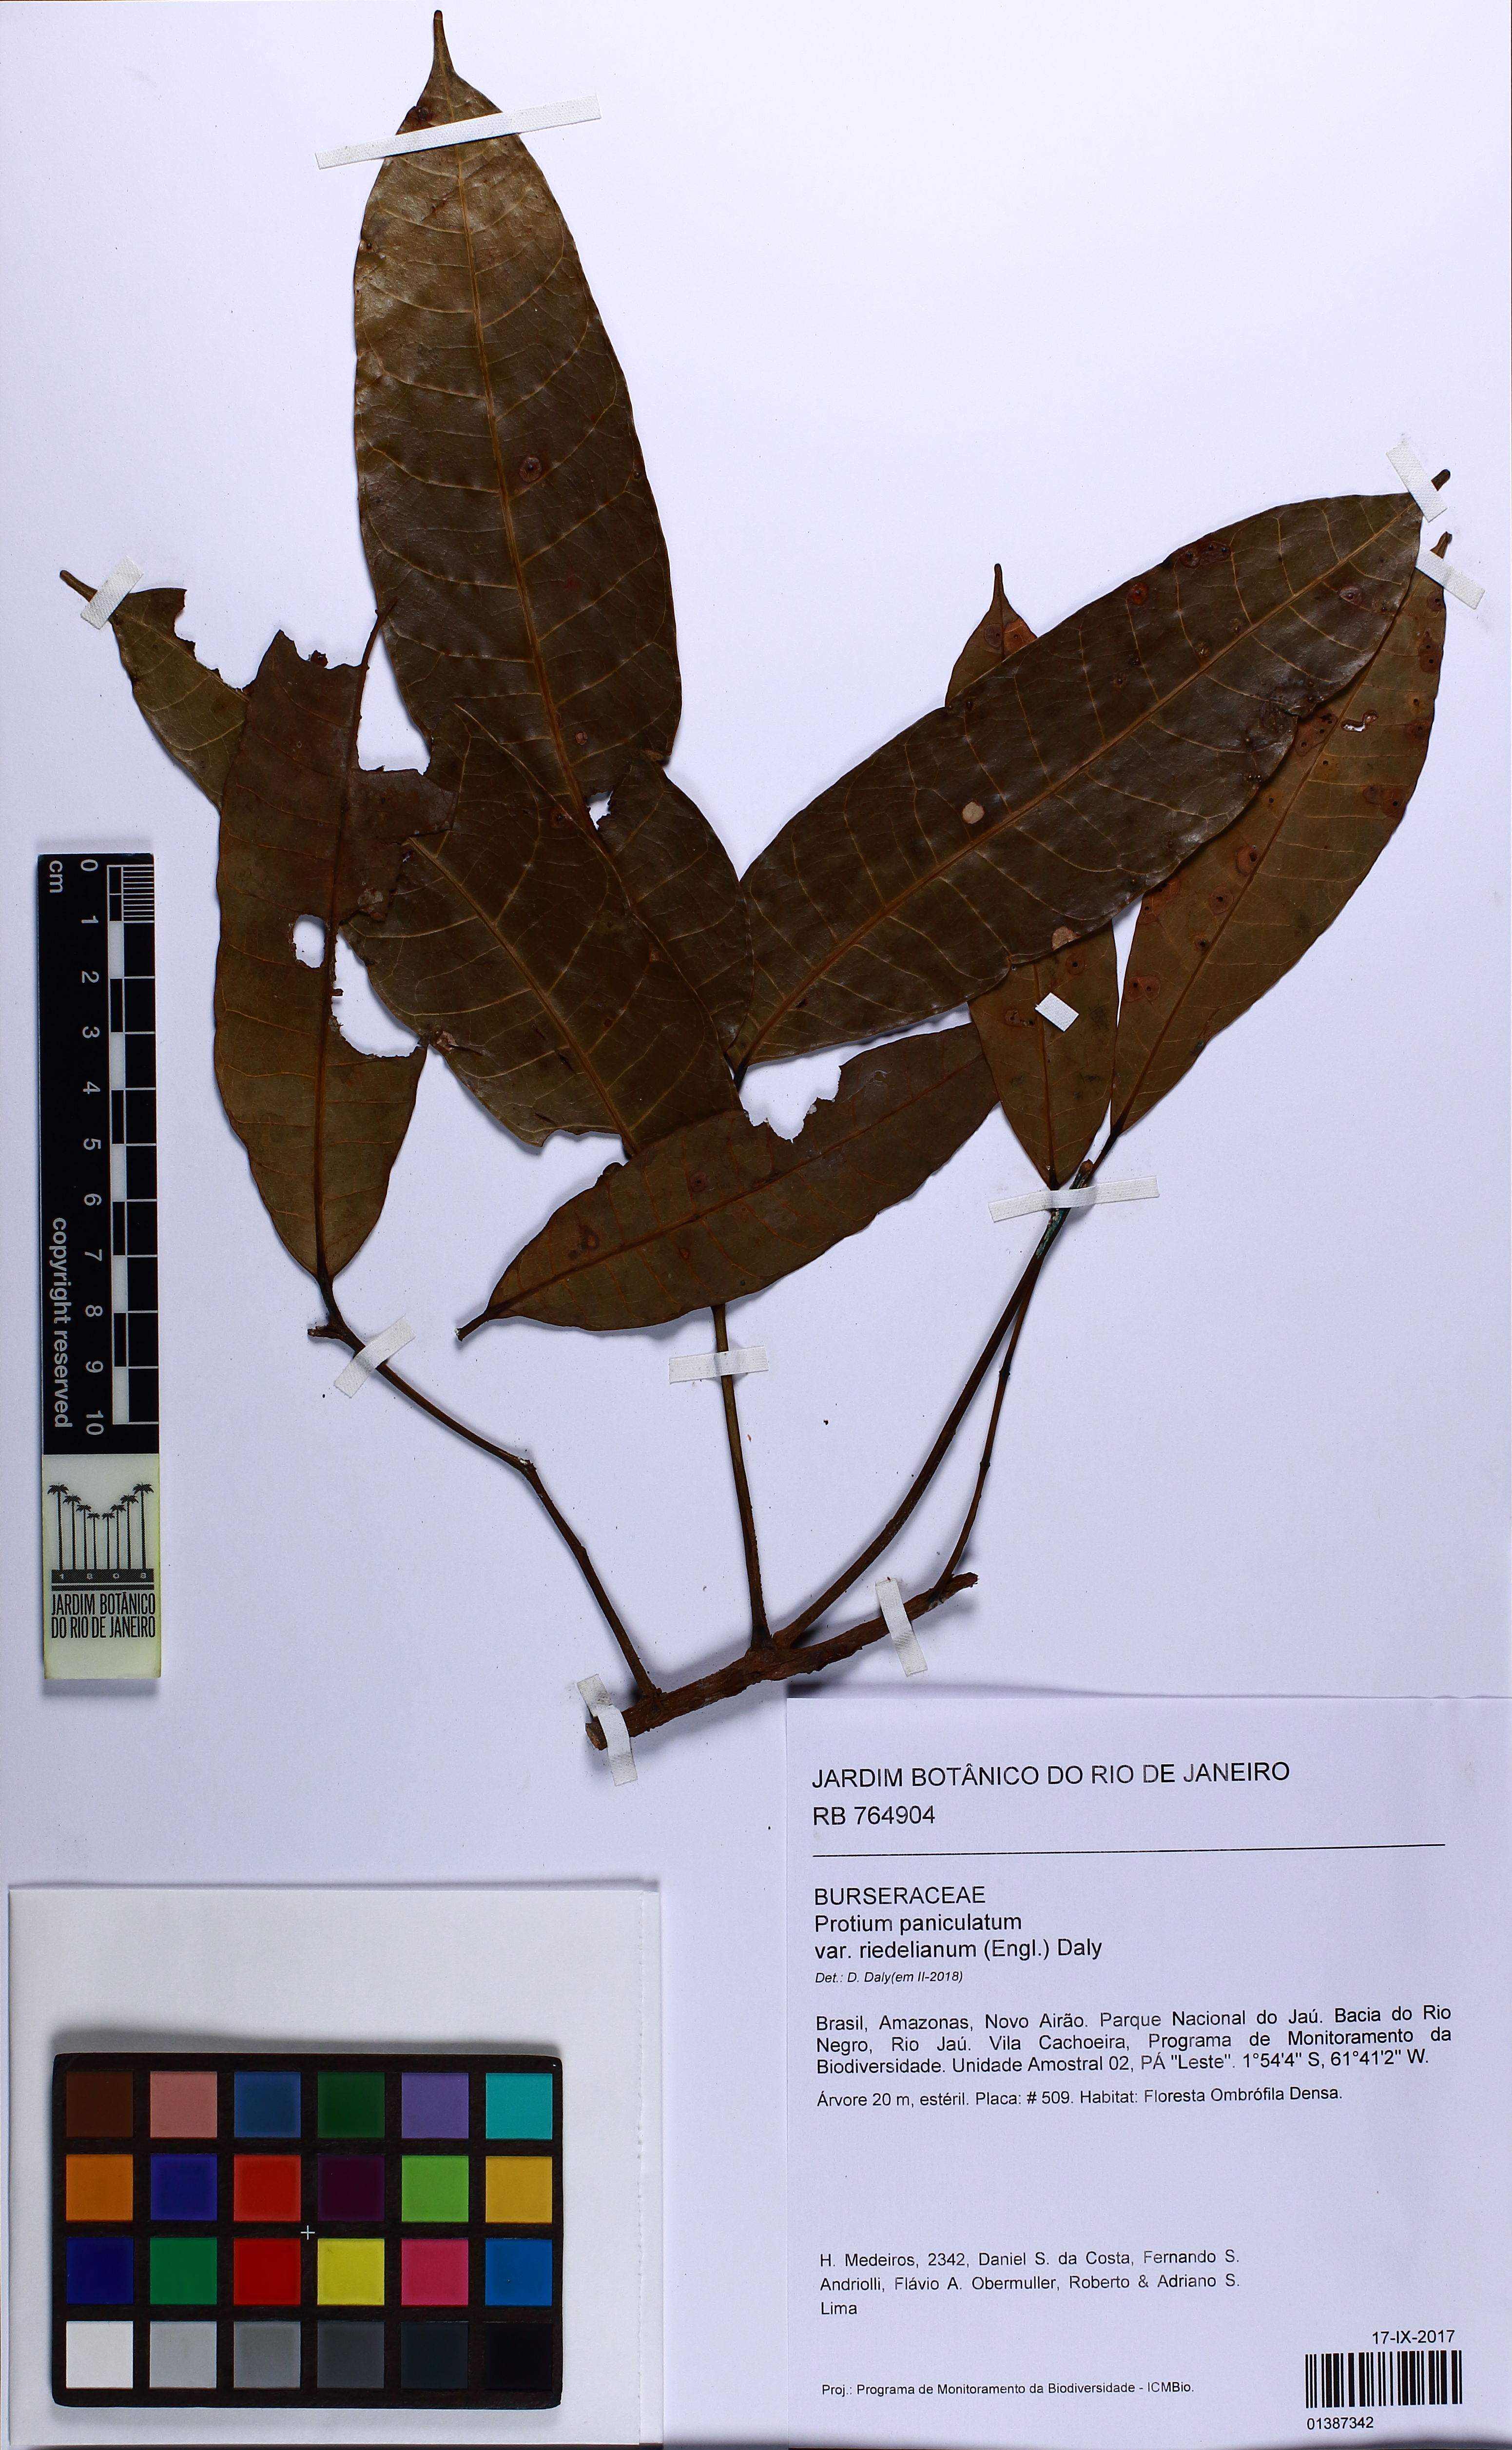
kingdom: Plantae
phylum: Tracheophyta
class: Magnoliopsida
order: Sapindales
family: Burseraceae
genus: Protium
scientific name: Protium paniculatum
